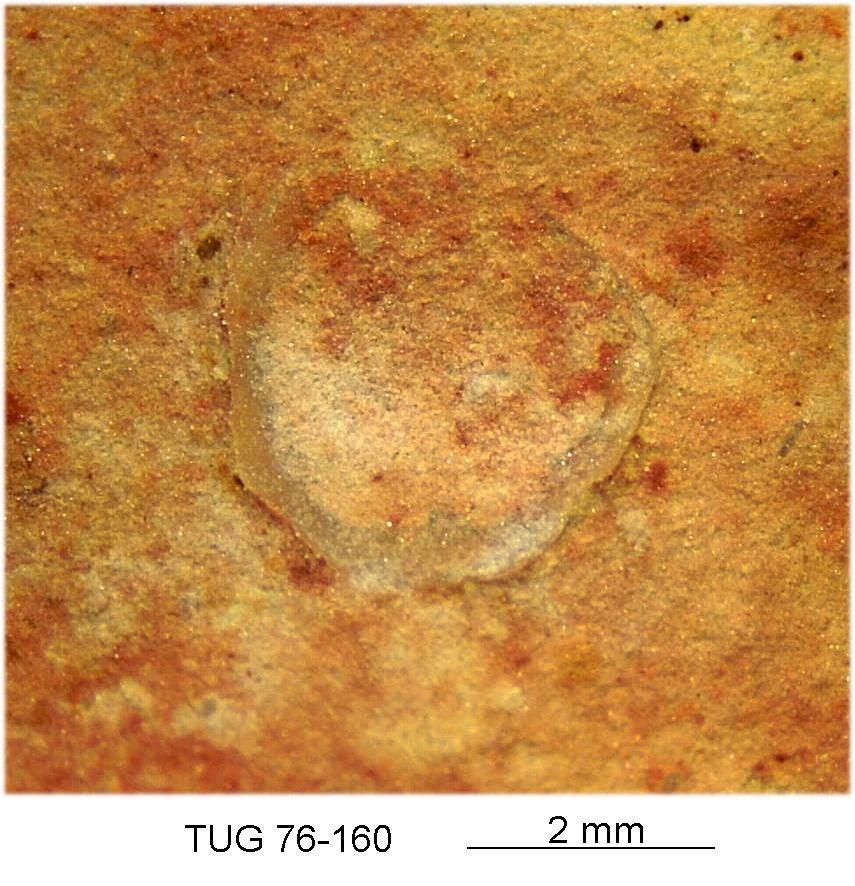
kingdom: Animalia
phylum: Brachiopoda
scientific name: Brachiopoda
